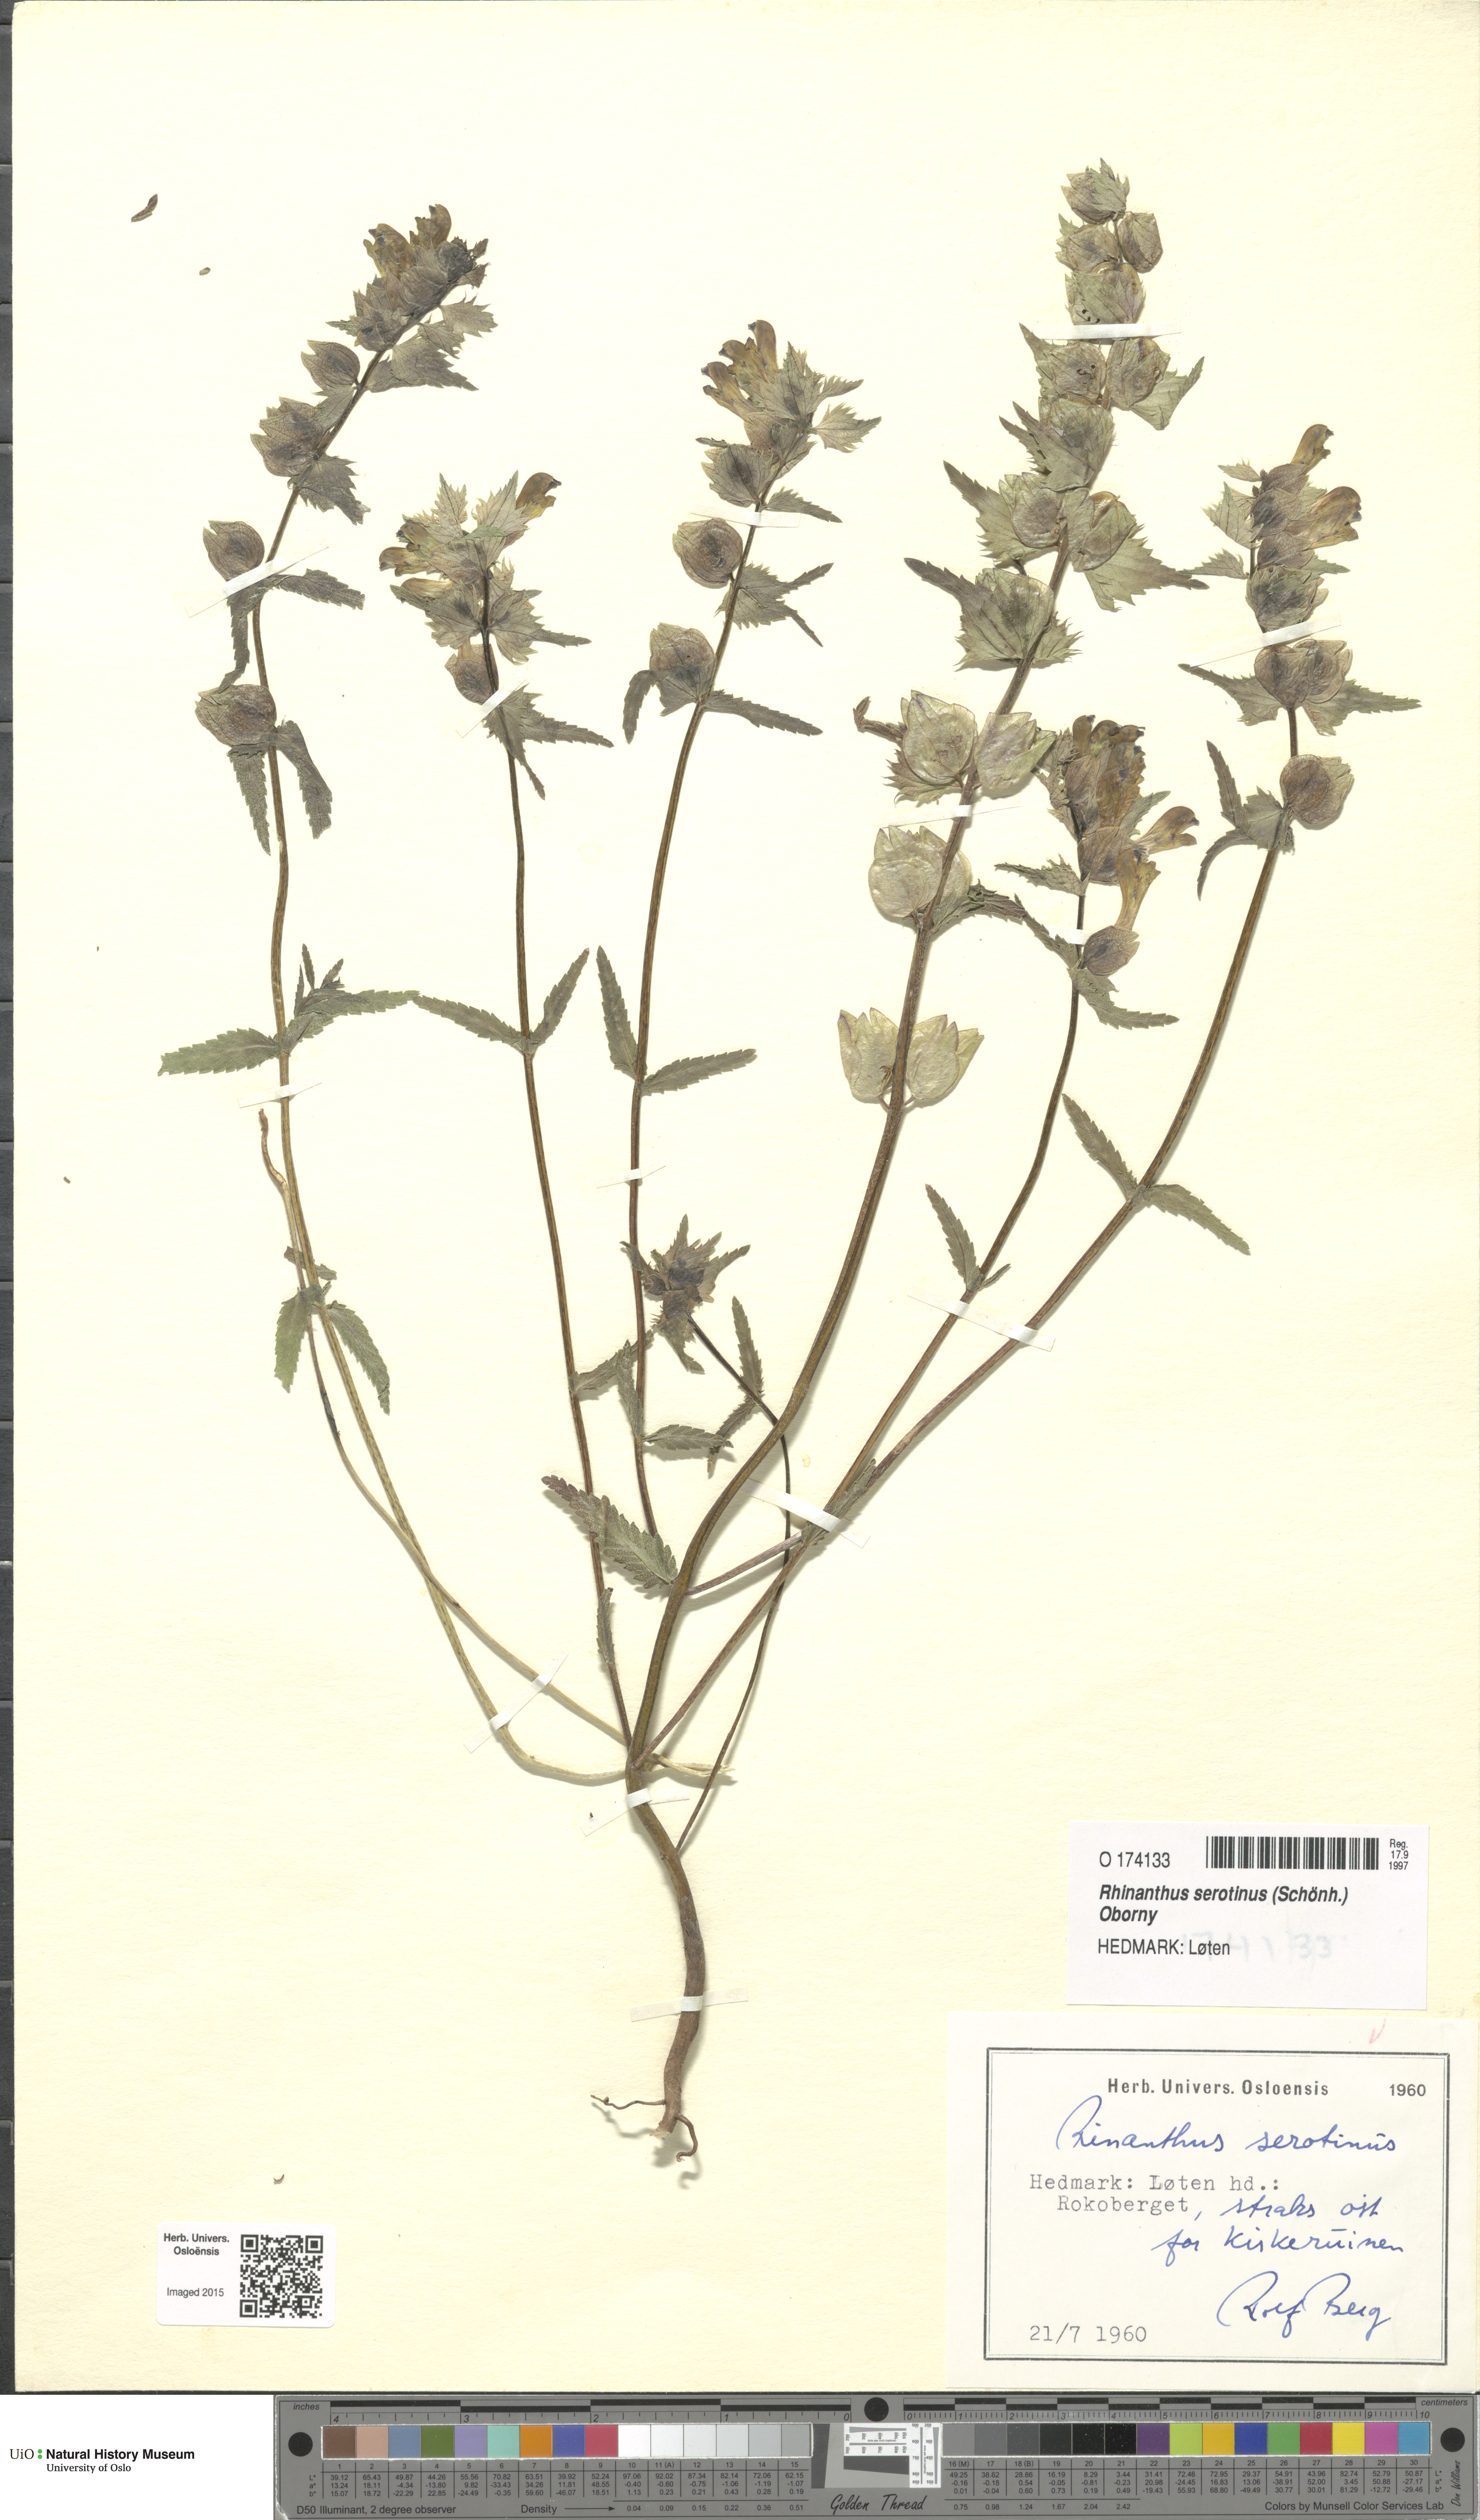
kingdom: Plantae
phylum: Tracheophyta
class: Magnoliopsida
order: Lamiales
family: Orobanchaceae
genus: Rhinanthus
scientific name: Rhinanthus
